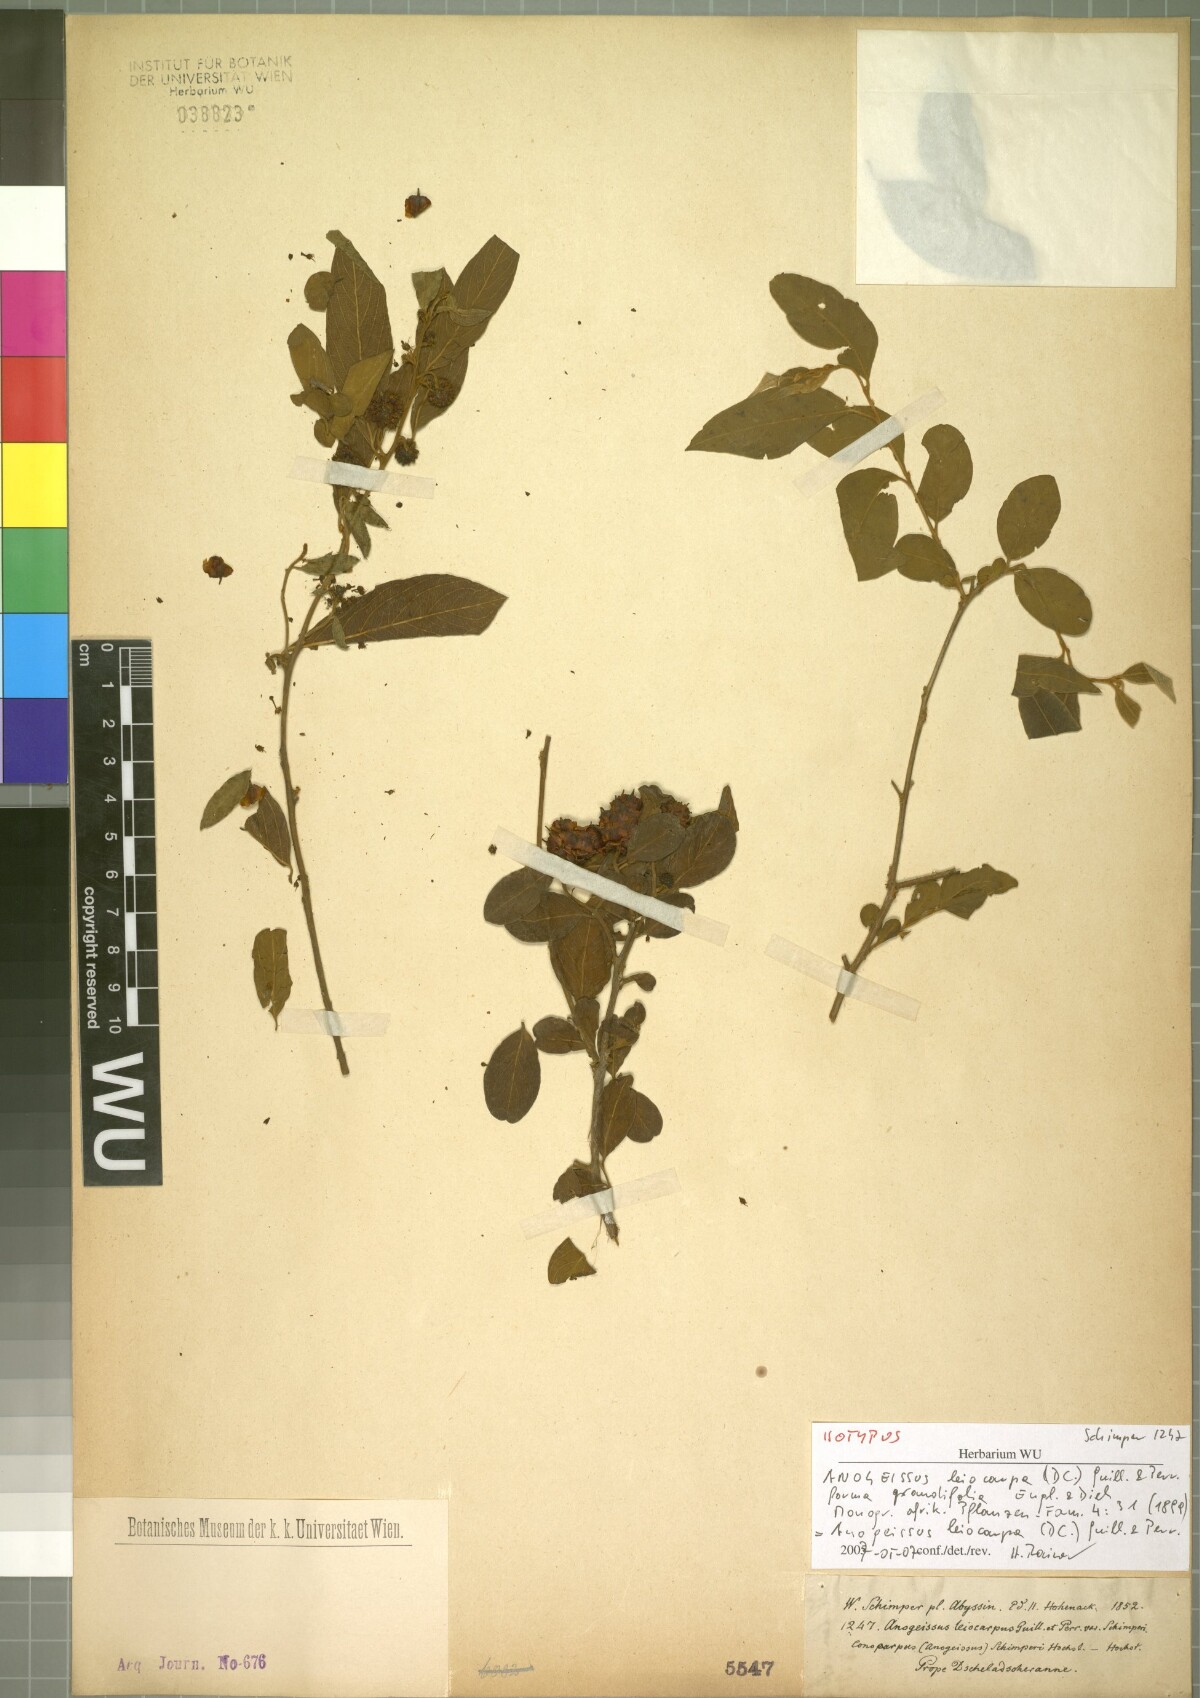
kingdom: Plantae
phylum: Tracheophyta
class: Magnoliopsida
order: Myrtales
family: Combretaceae
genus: Terminalia
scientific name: Terminalia leiocarpa
